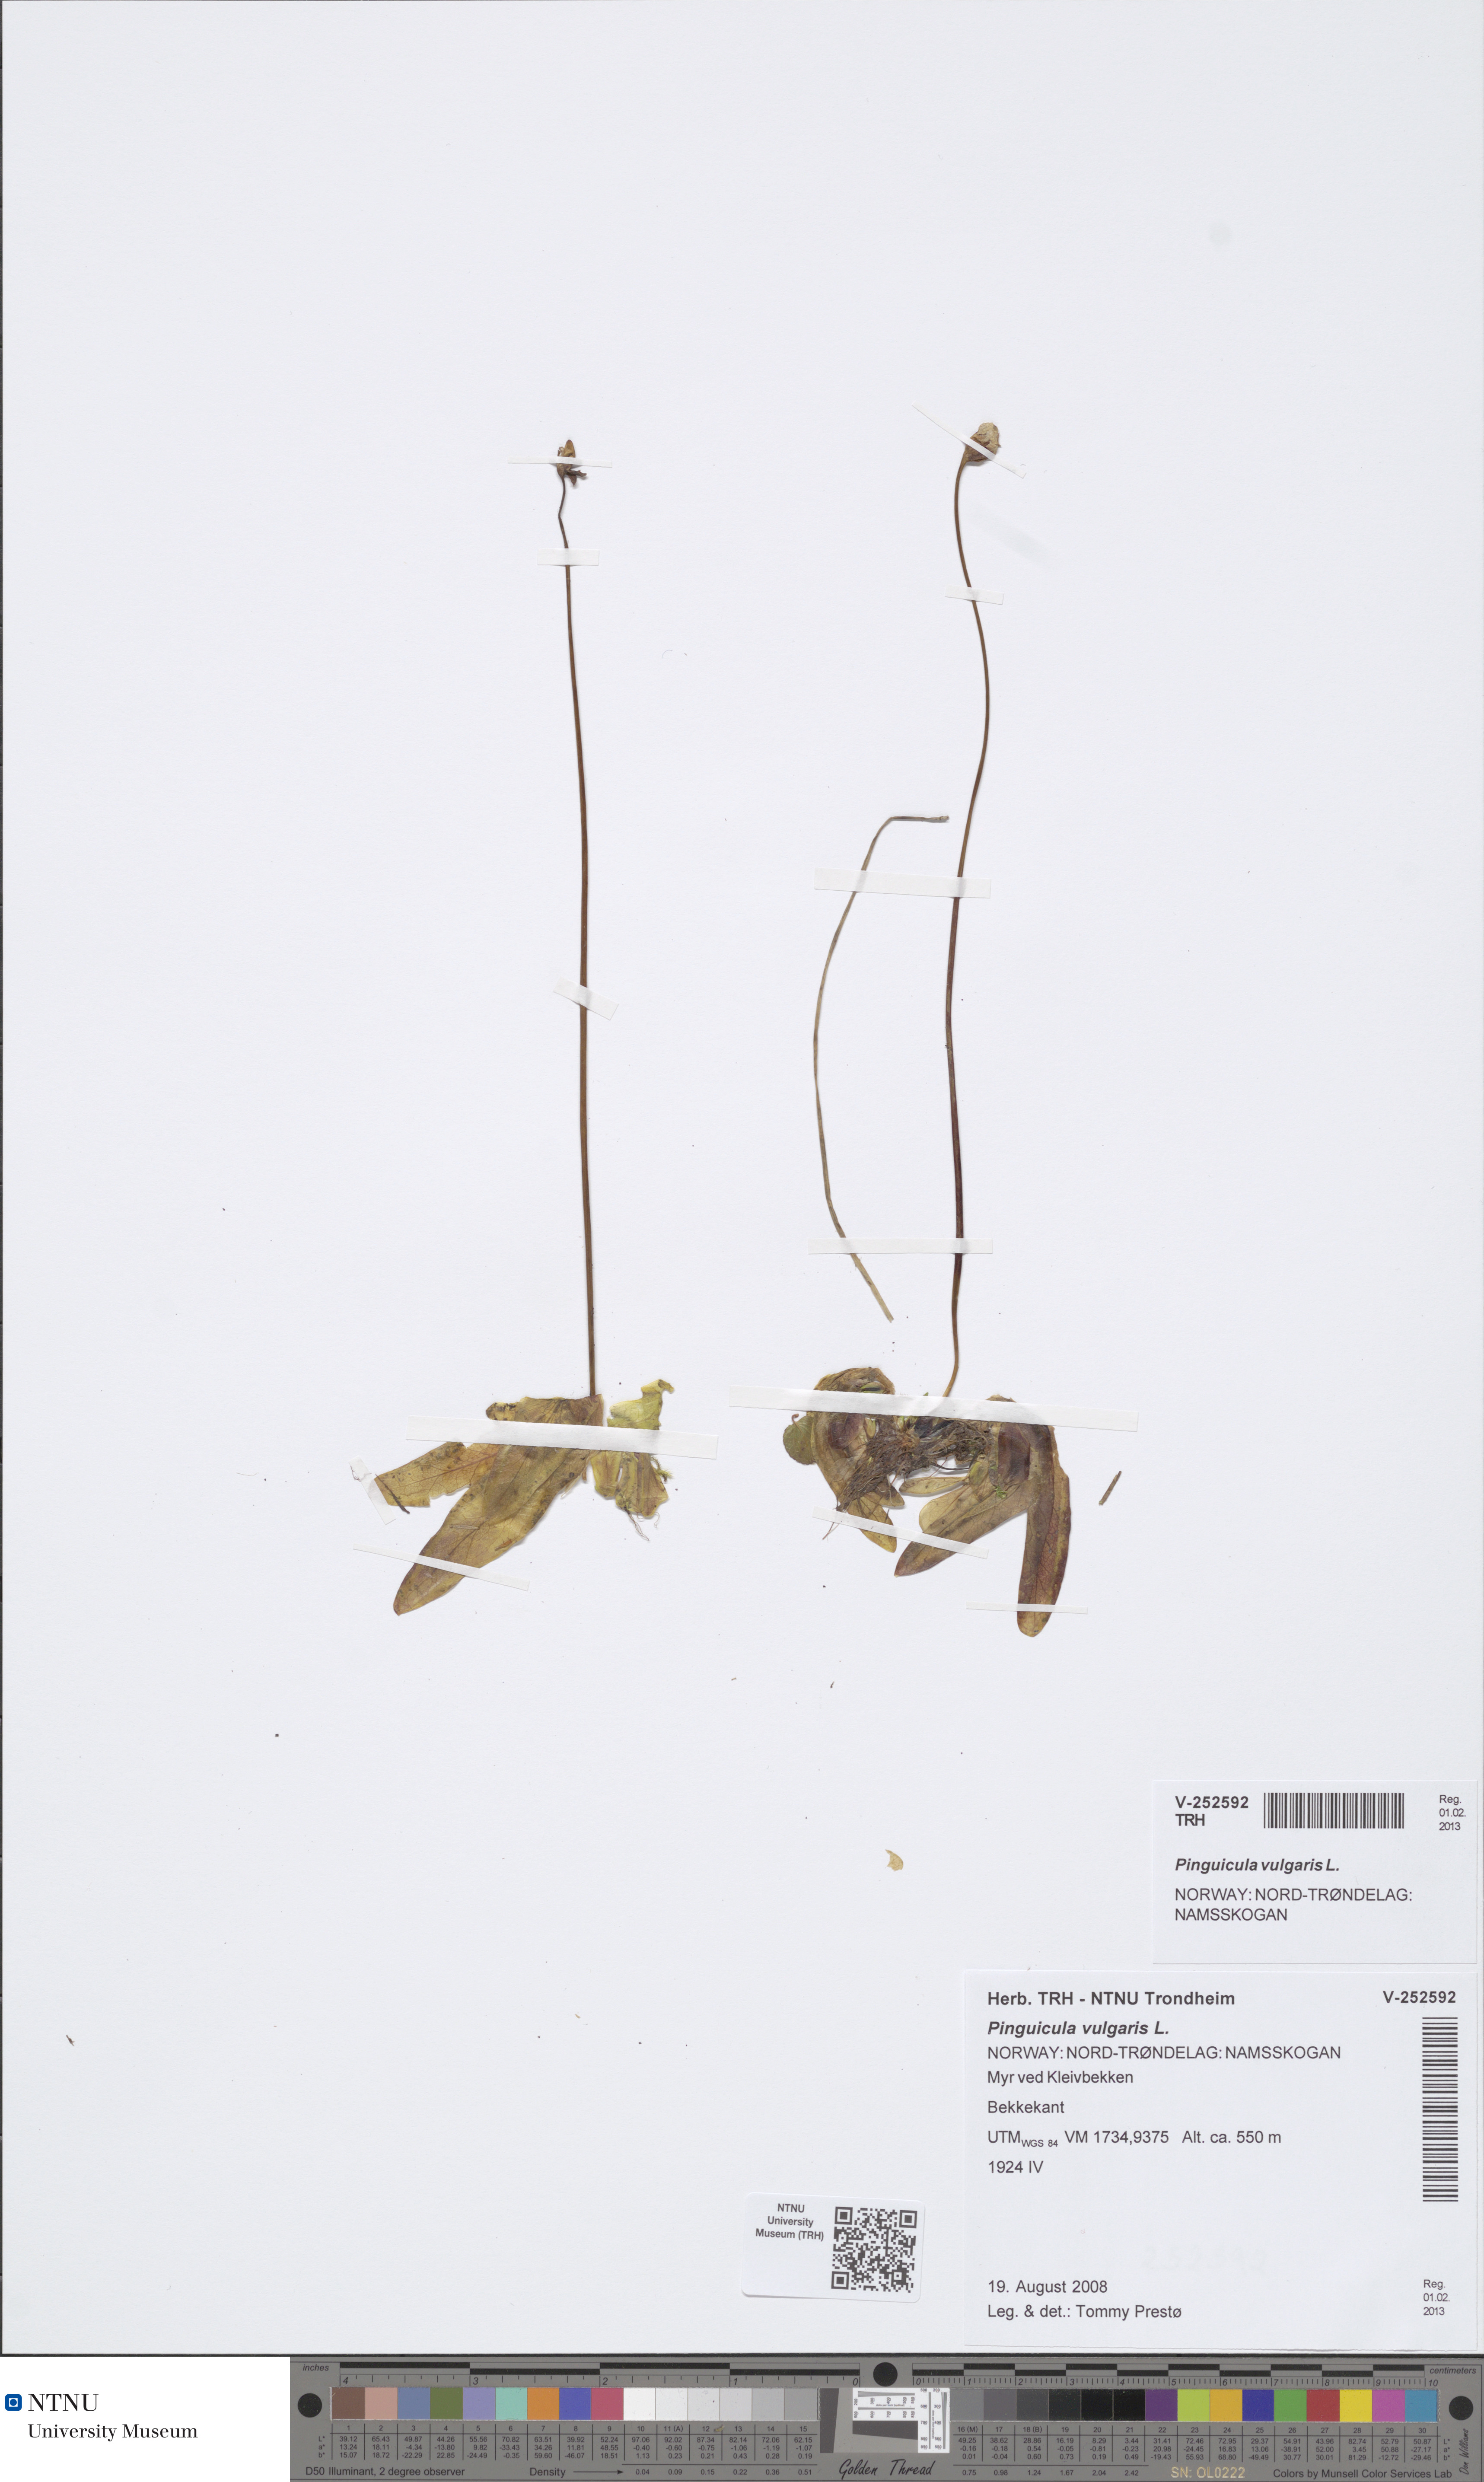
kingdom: Plantae
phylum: Tracheophyta
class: Magnoliopsida
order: Lamiales
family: Lentibulariaceae
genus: Pinguicula
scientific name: Pinguicula vulgaris
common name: Common butterwort
